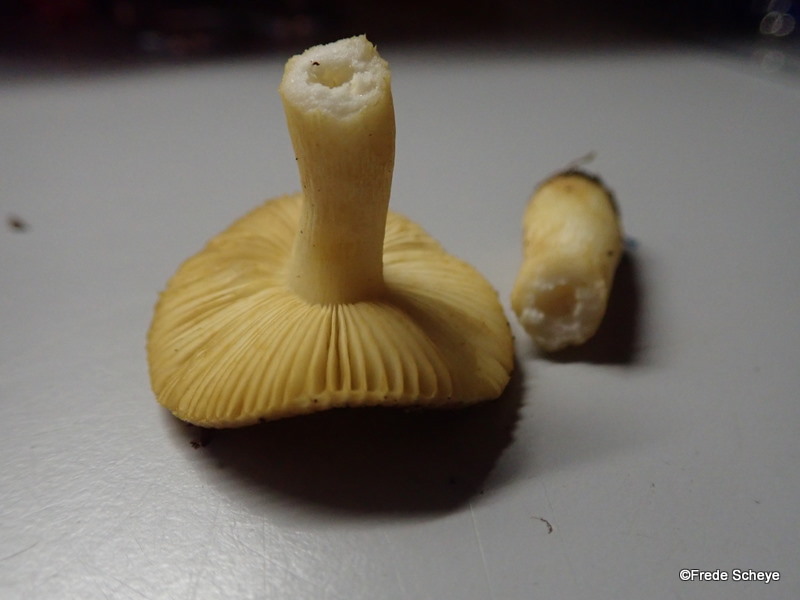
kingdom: Fungi
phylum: Basidiomycota
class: Agaricomycetes
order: Russulales
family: Russulaceae
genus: Russula
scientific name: Russula puellaris
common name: gulstokket skørhat
